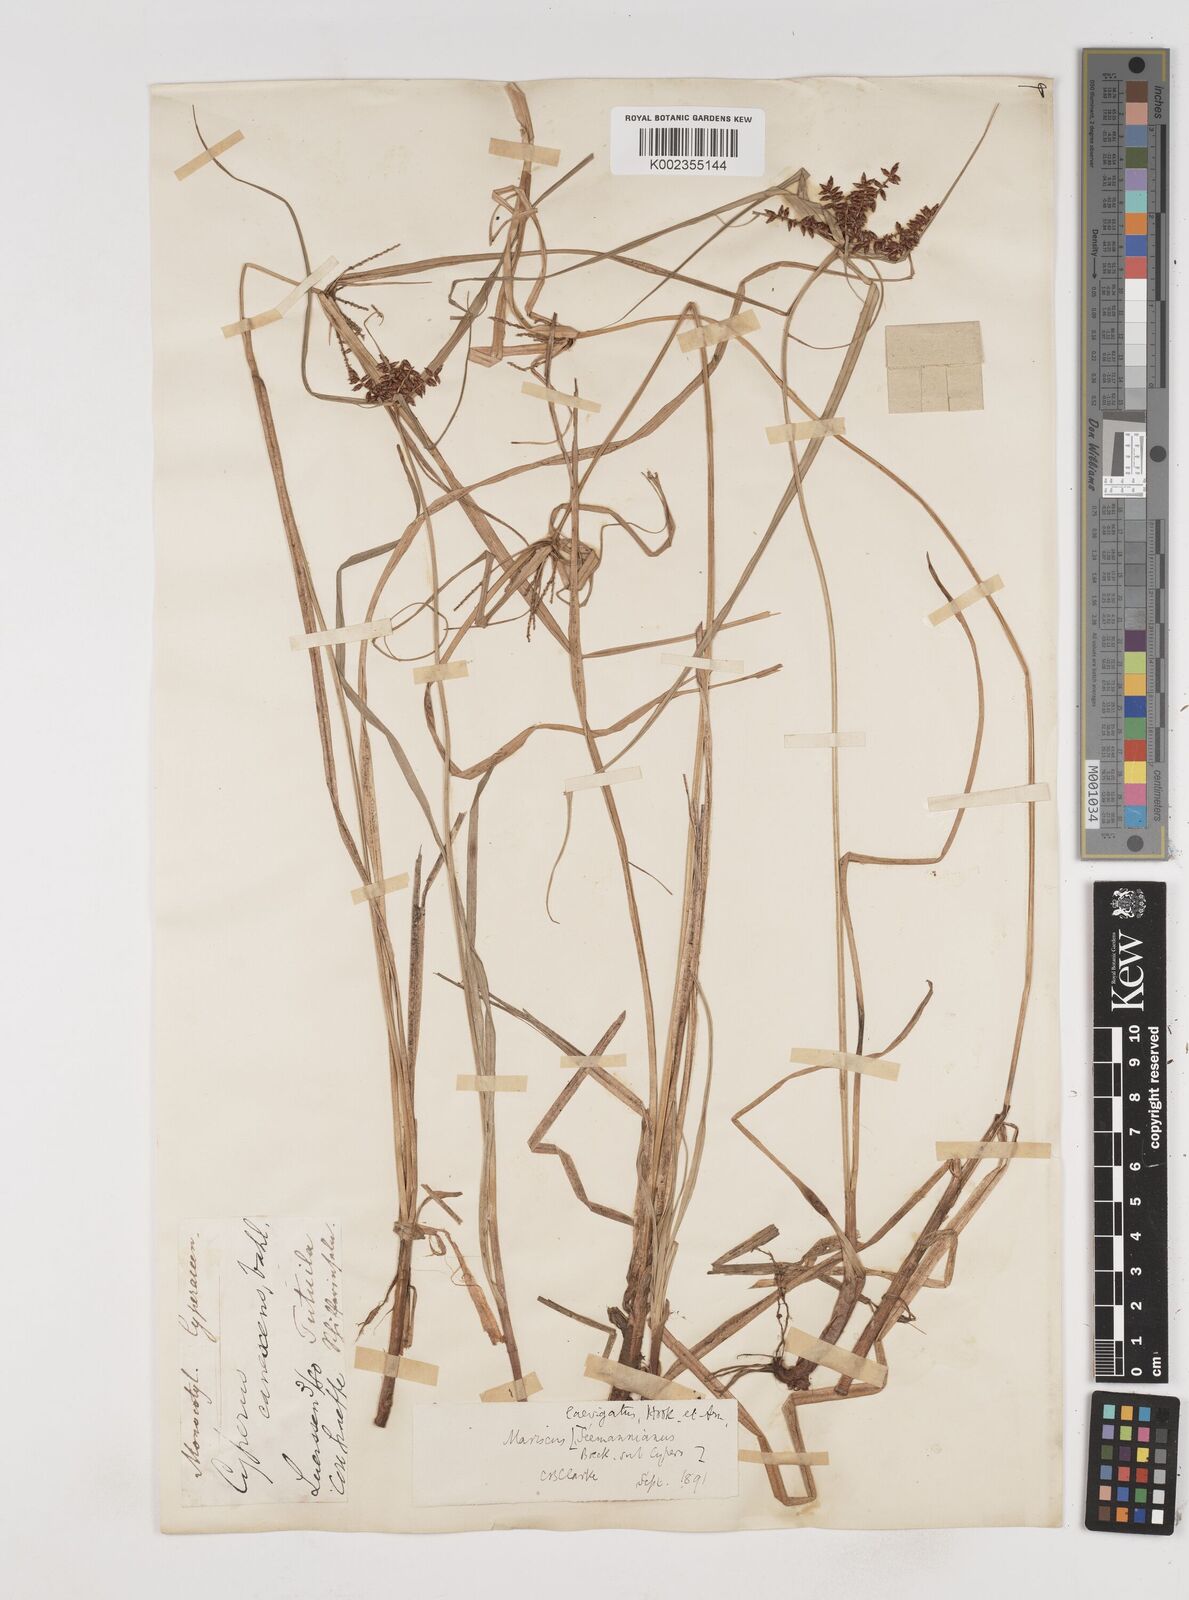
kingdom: Plantae
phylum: Tracheophyta
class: Liliopsida
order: Poales
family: Cyperaceae
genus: Cyperus
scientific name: Cyperus seemannianus
